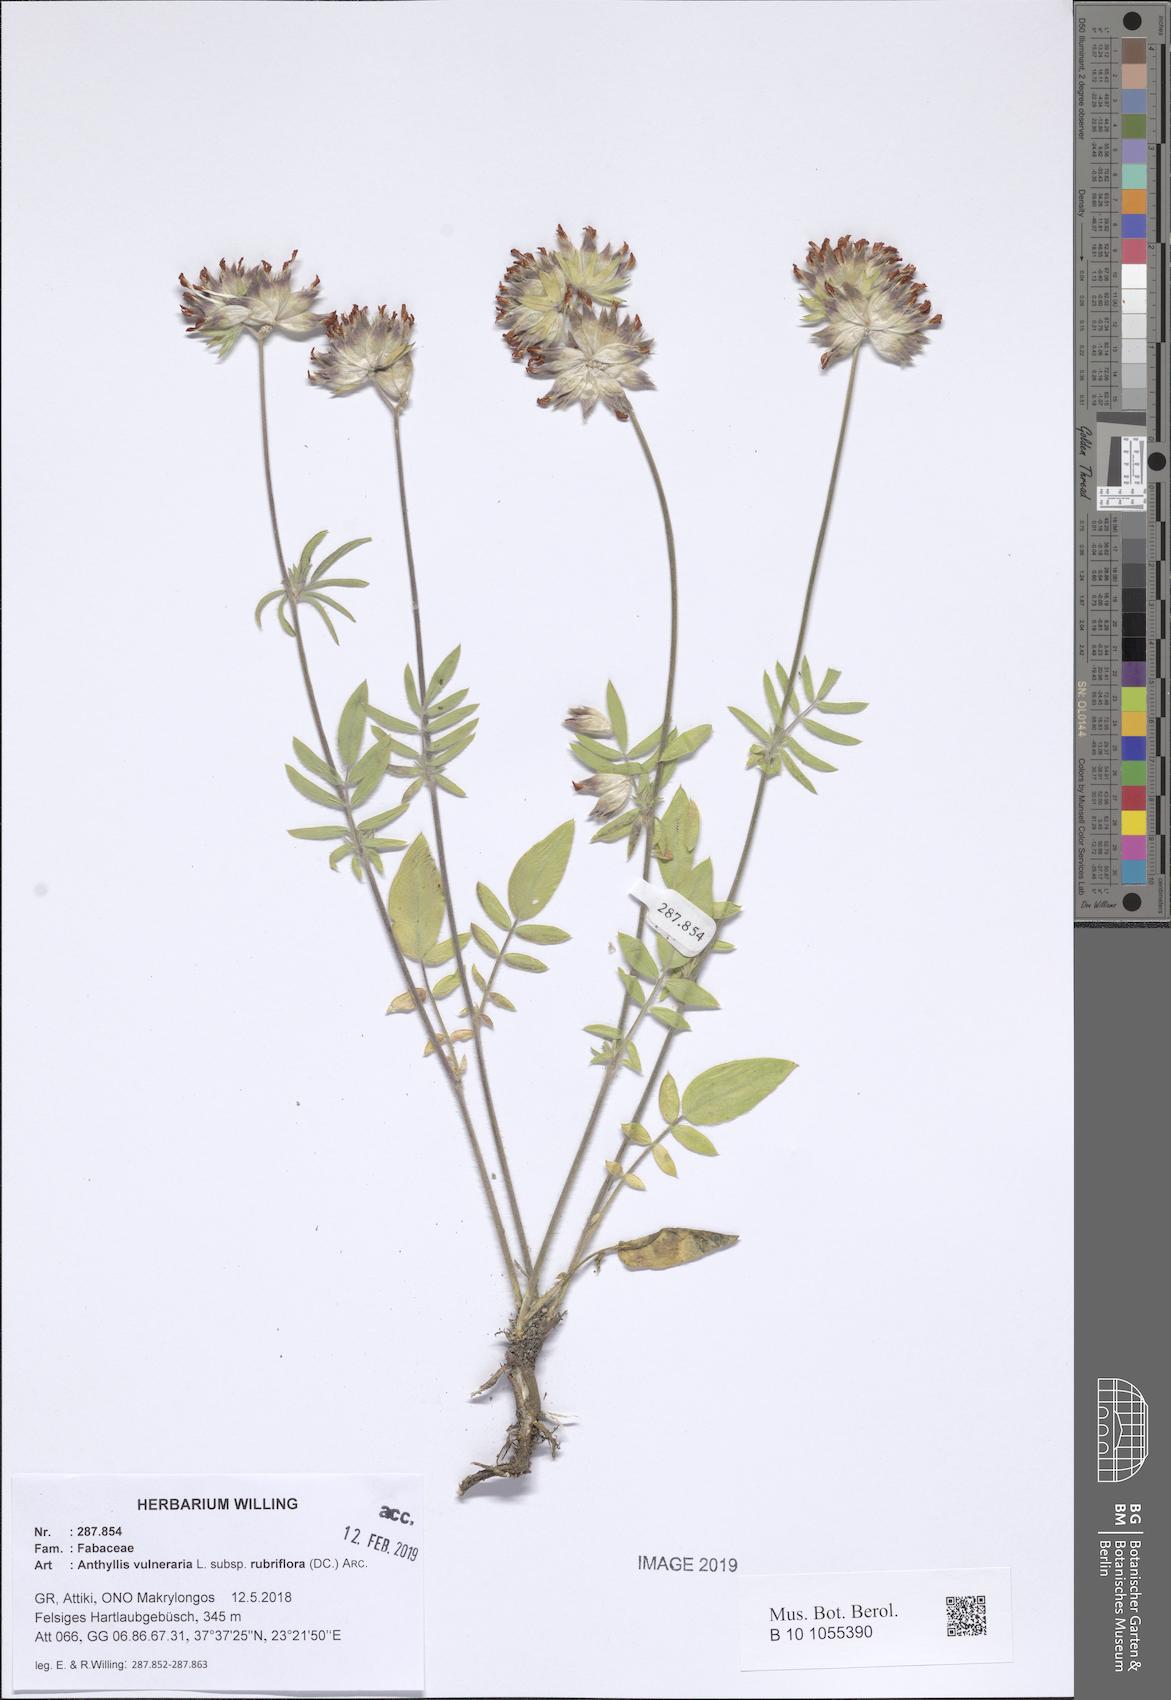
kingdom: Plantae
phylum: Tracheophyta
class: Magnoliopsida
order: Fabales
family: Fabaceae
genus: Anthyllis
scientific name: Anthyllis vulneraria
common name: Kidney vetch
